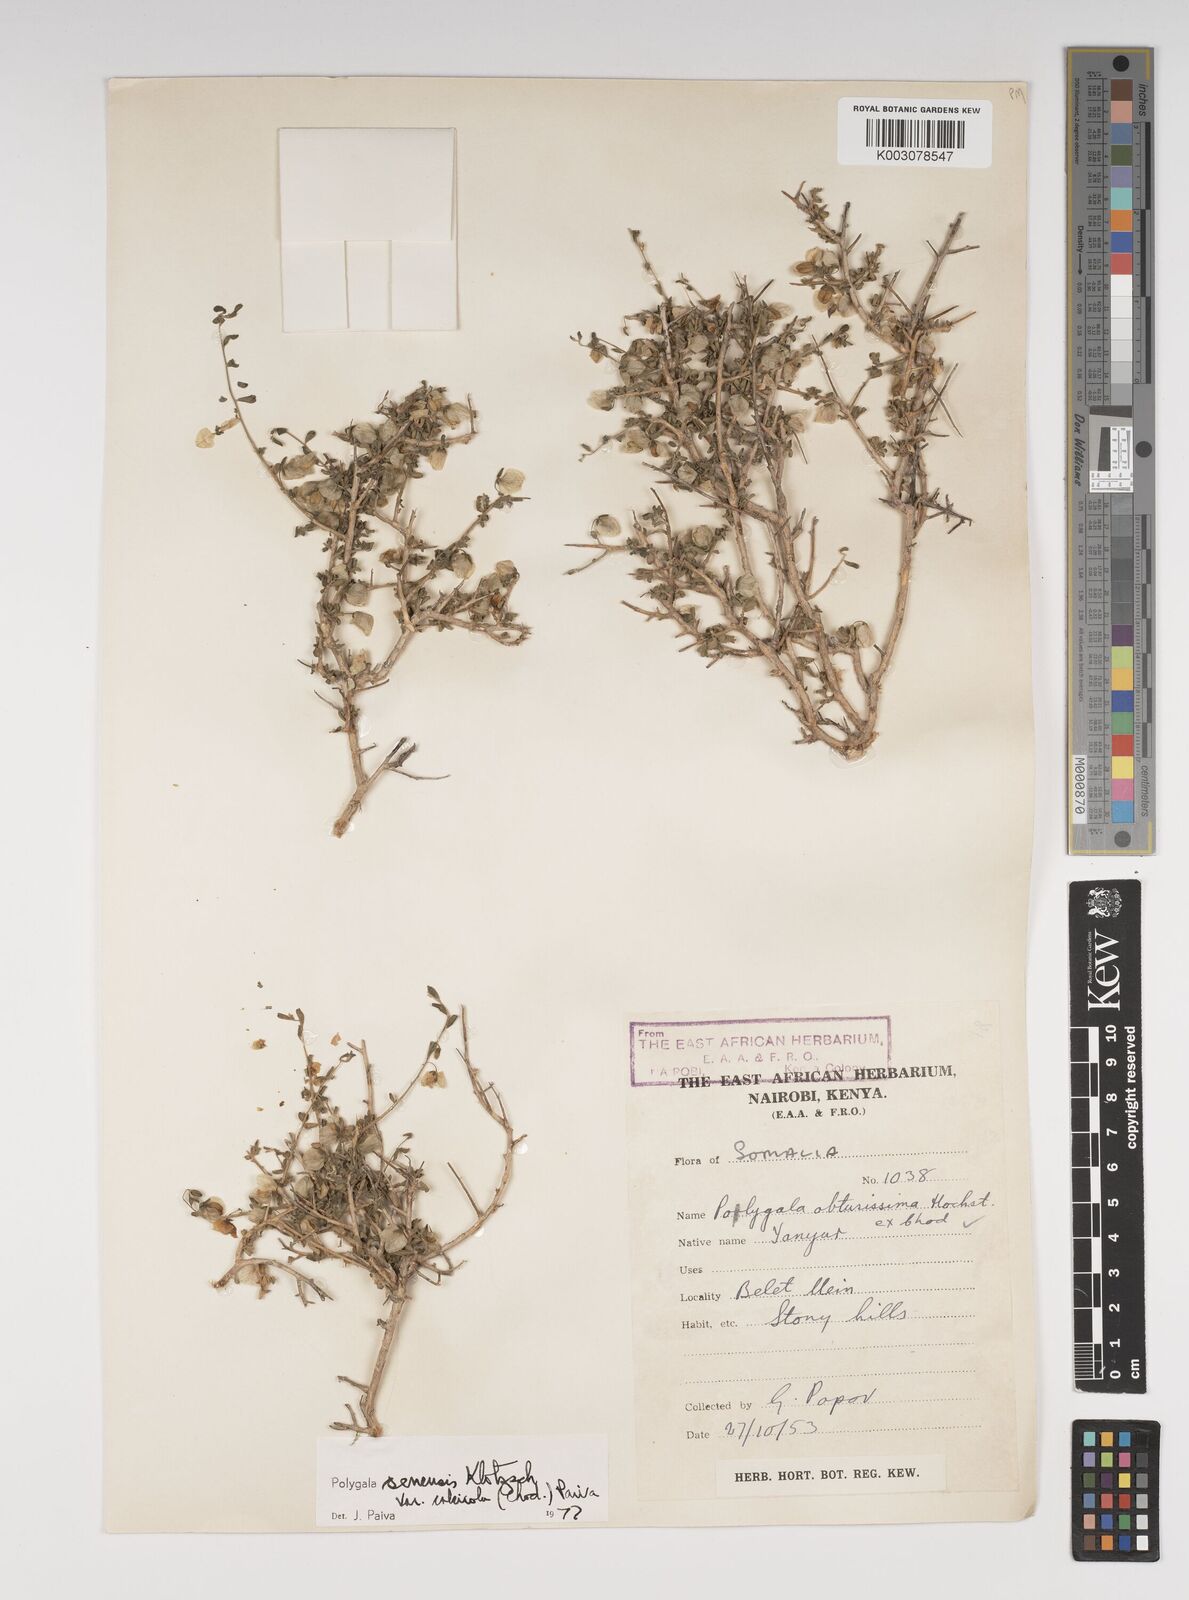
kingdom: Plantae
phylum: Tracheophyta
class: Magnoliopsida
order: Fabales
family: Polygalaceae
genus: Polygala
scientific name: Polygala obtusissima
